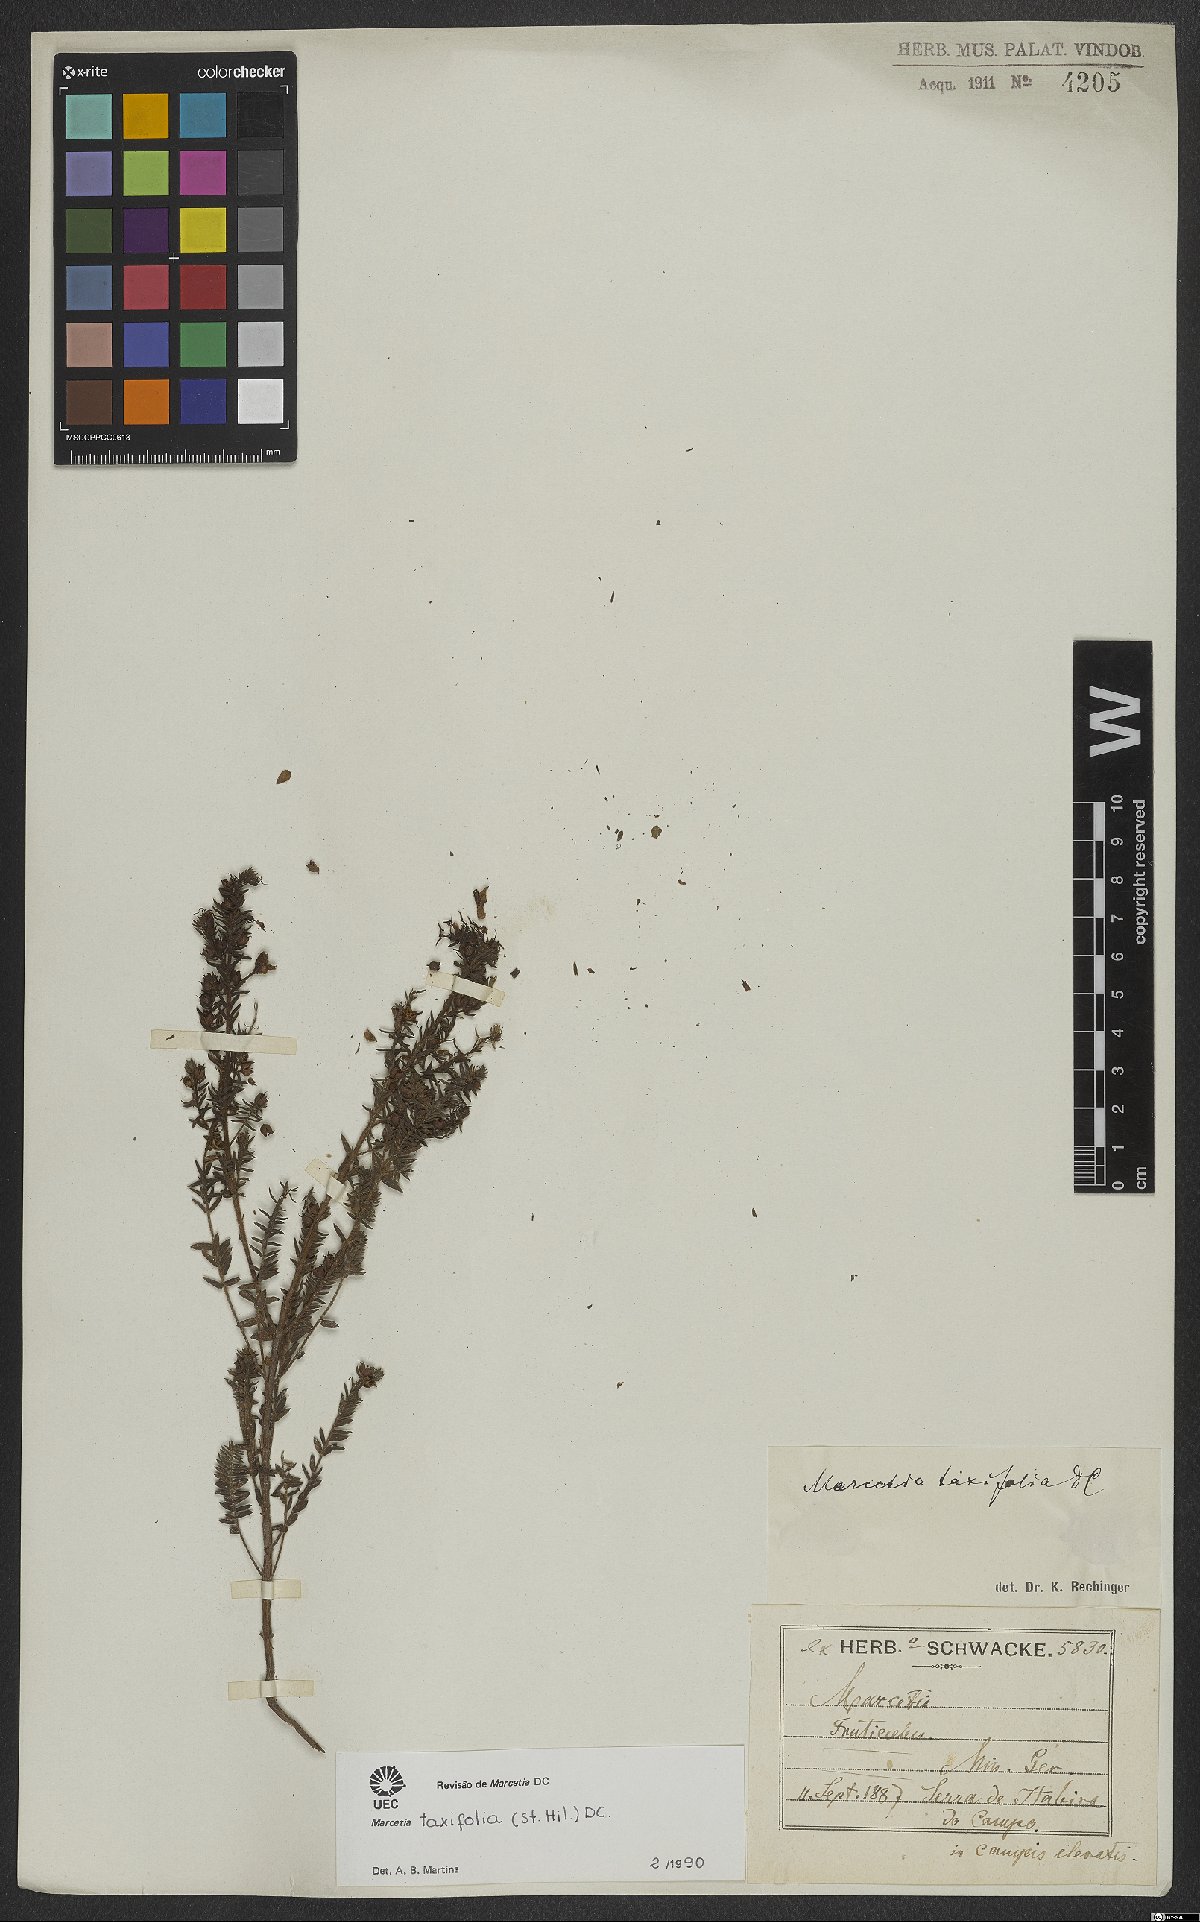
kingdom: Plantae
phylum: Tracheophyta
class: Magnoliopsida
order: Myrtales
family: Melastomataceae
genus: Marcetia
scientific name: Marcetia taxifolia
